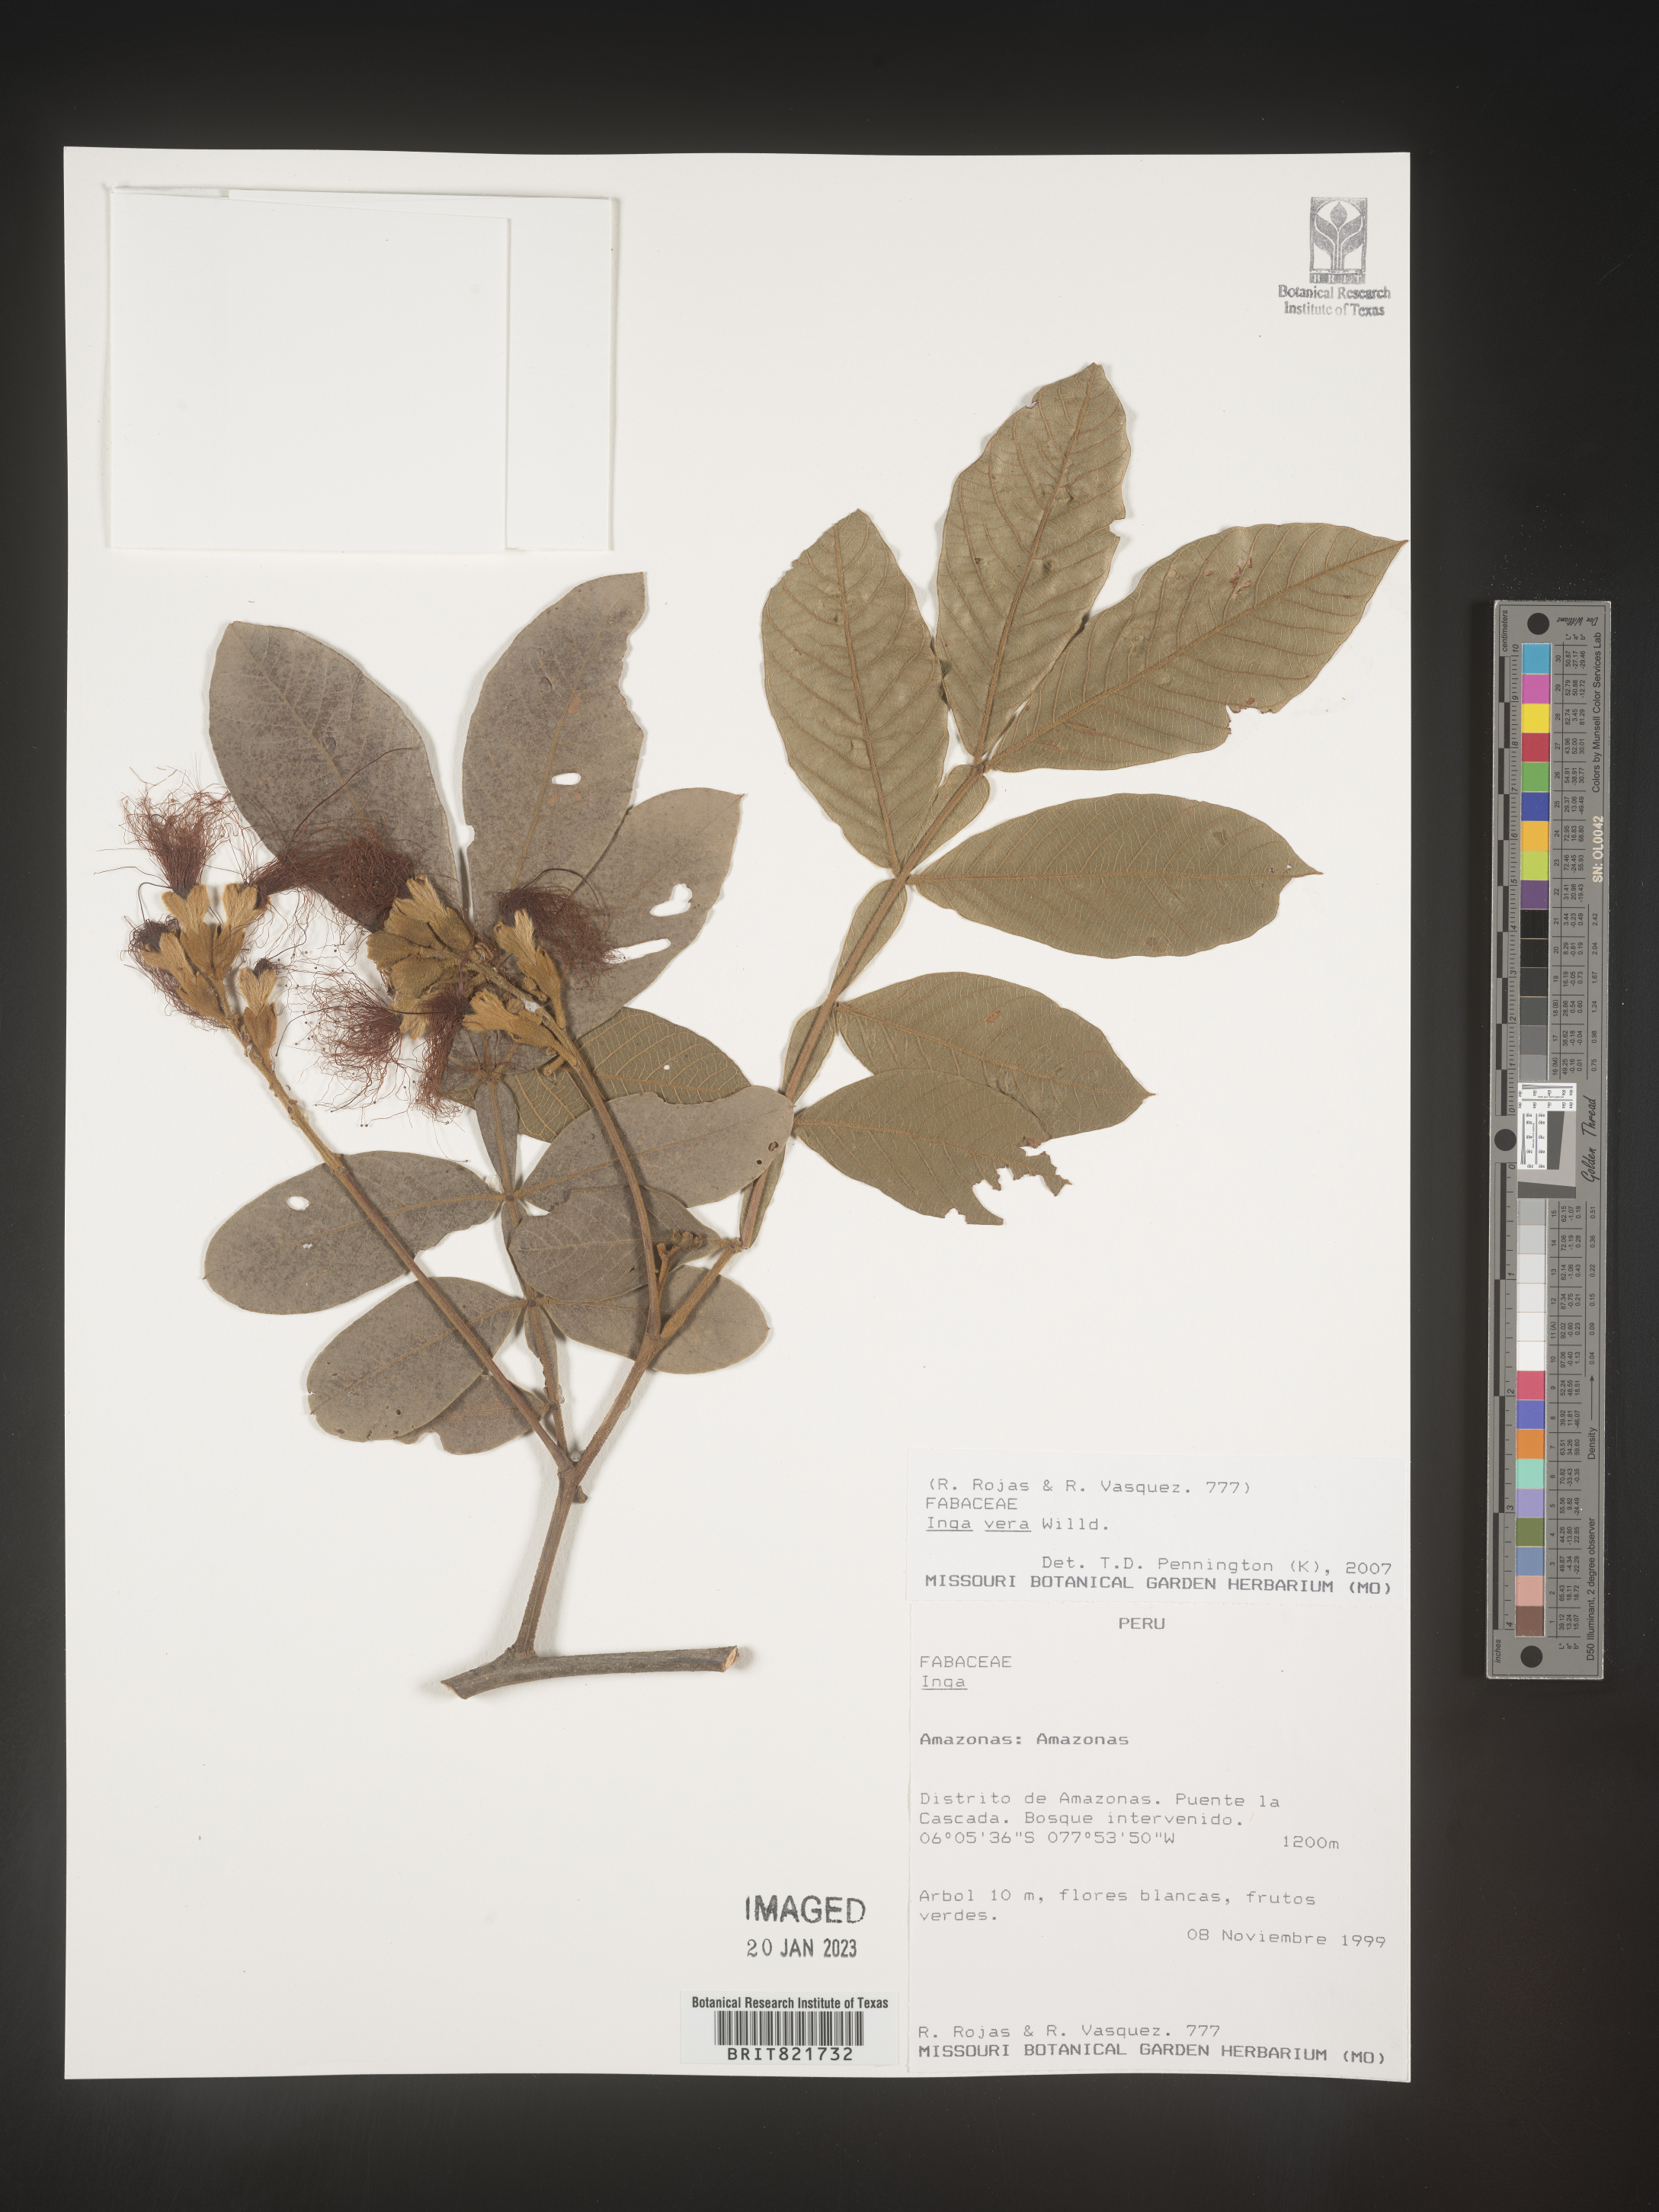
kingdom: Plantae
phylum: Tracheophyta
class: Magnoliopsida
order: Fabales
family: Fabaceae
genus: Inga
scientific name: Inga
